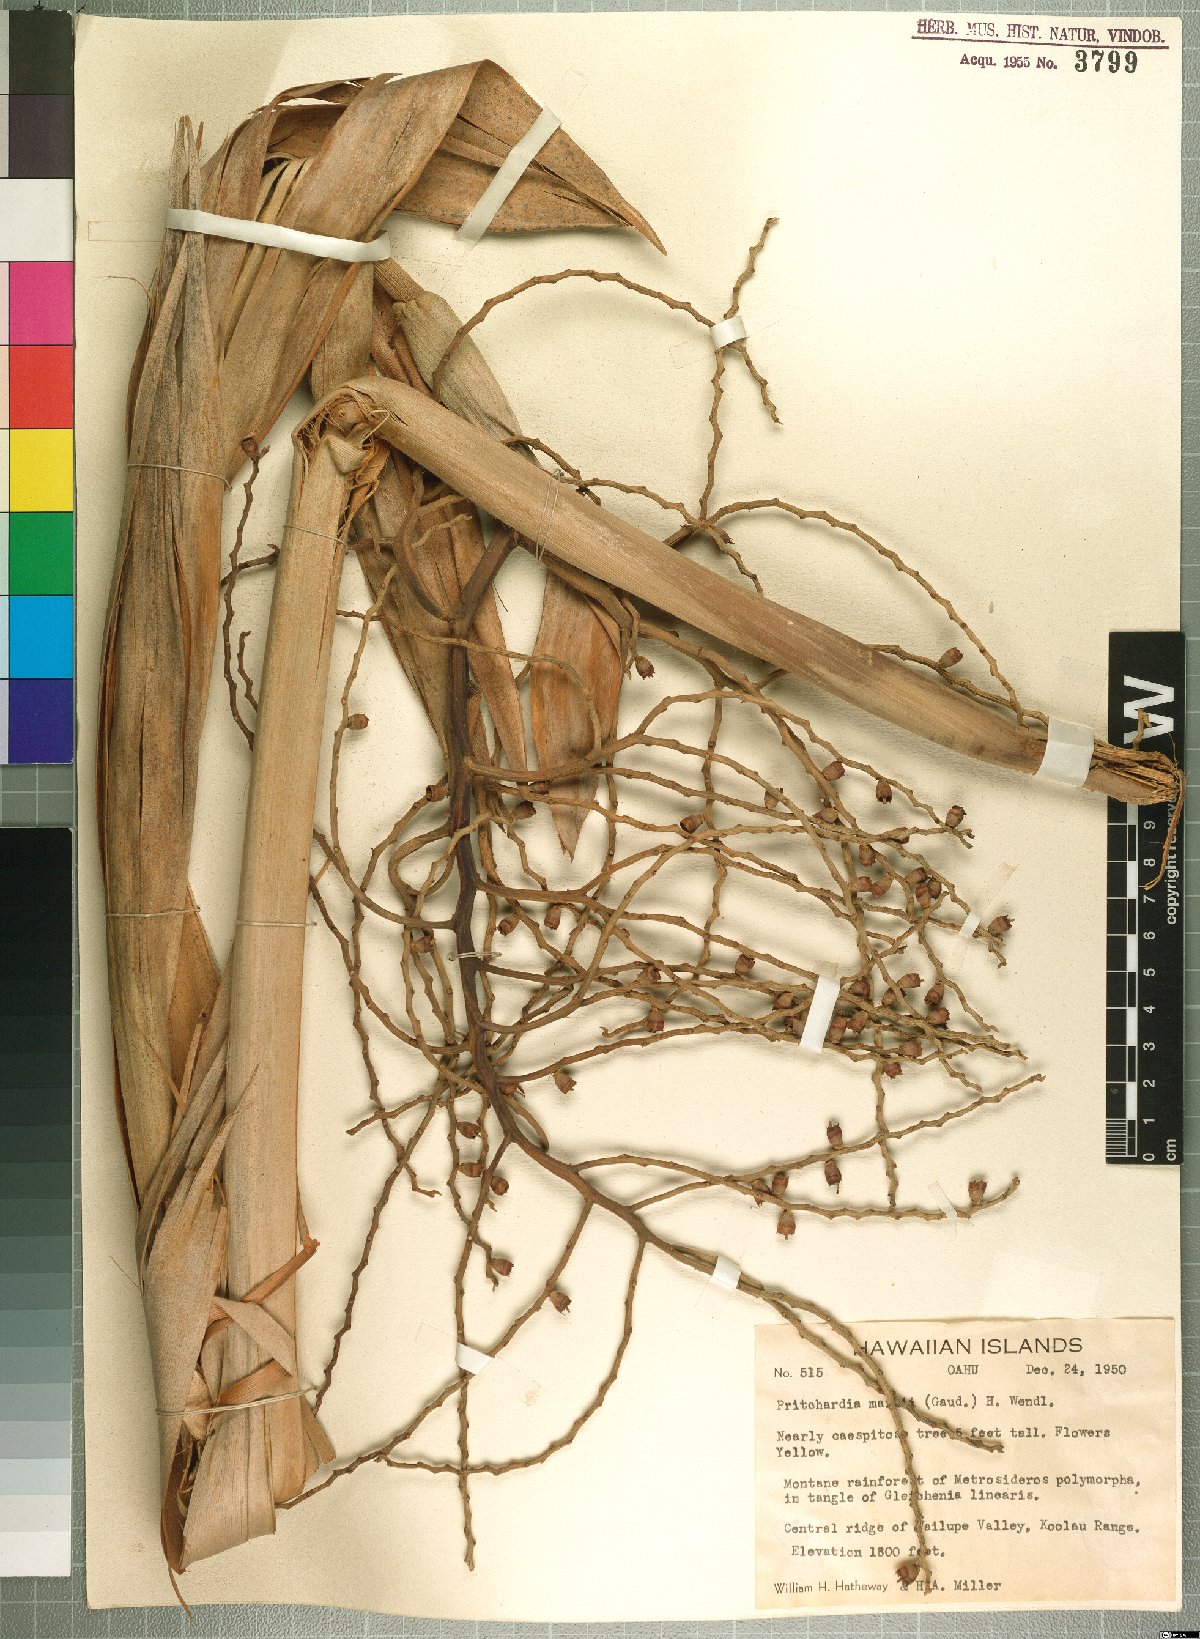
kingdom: Plantae
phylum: Tracheophyta
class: Liliopsida
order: Arecales
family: Arecaceae
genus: Pritchardia
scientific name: Pritchardia martii
